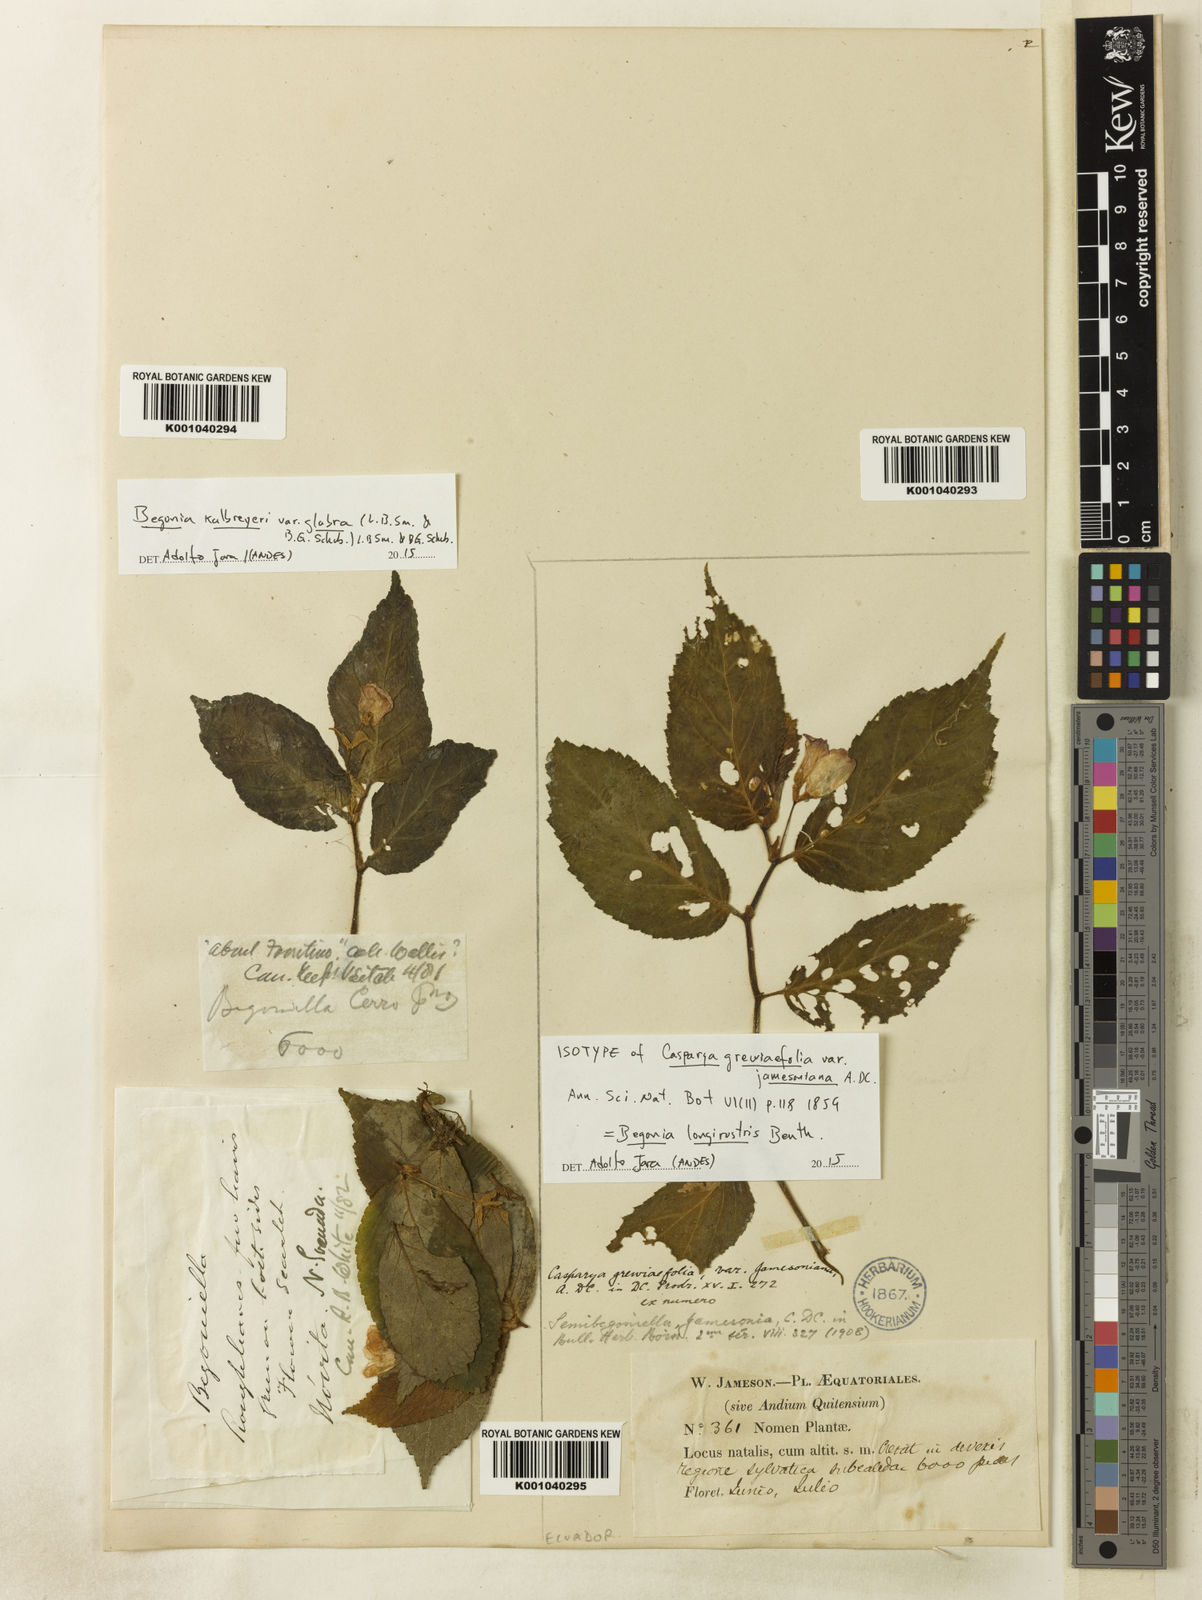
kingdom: Plantae
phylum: Tracheophyta
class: Magnoliopsida
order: Cucurbitales
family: Begoniaceae
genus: Begonia
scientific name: Begonia foliosa
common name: Fern begonia
